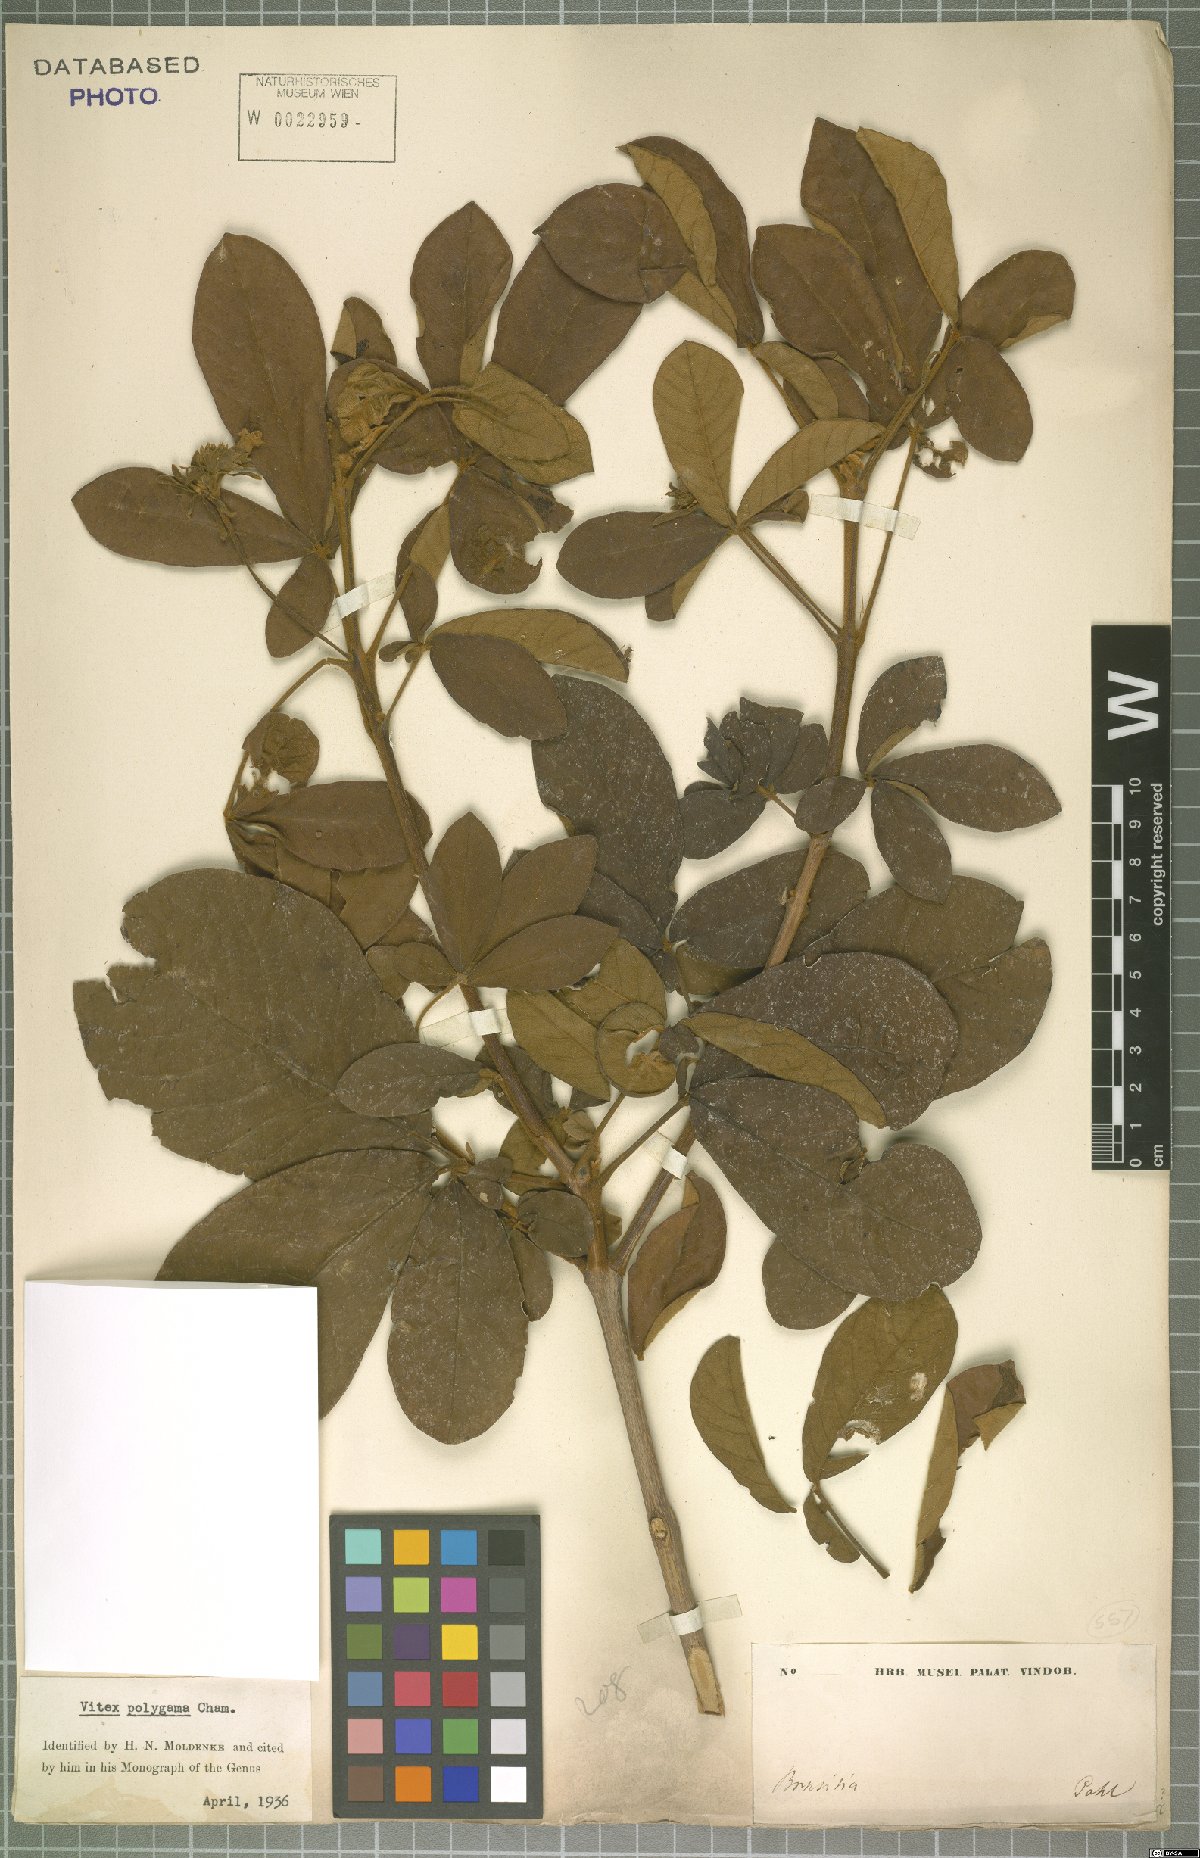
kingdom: Plantae
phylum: Tracheophyta
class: Magnoliopsida
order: Lamiales
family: Lamiaceae
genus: Vitex
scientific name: Vitex polygama
